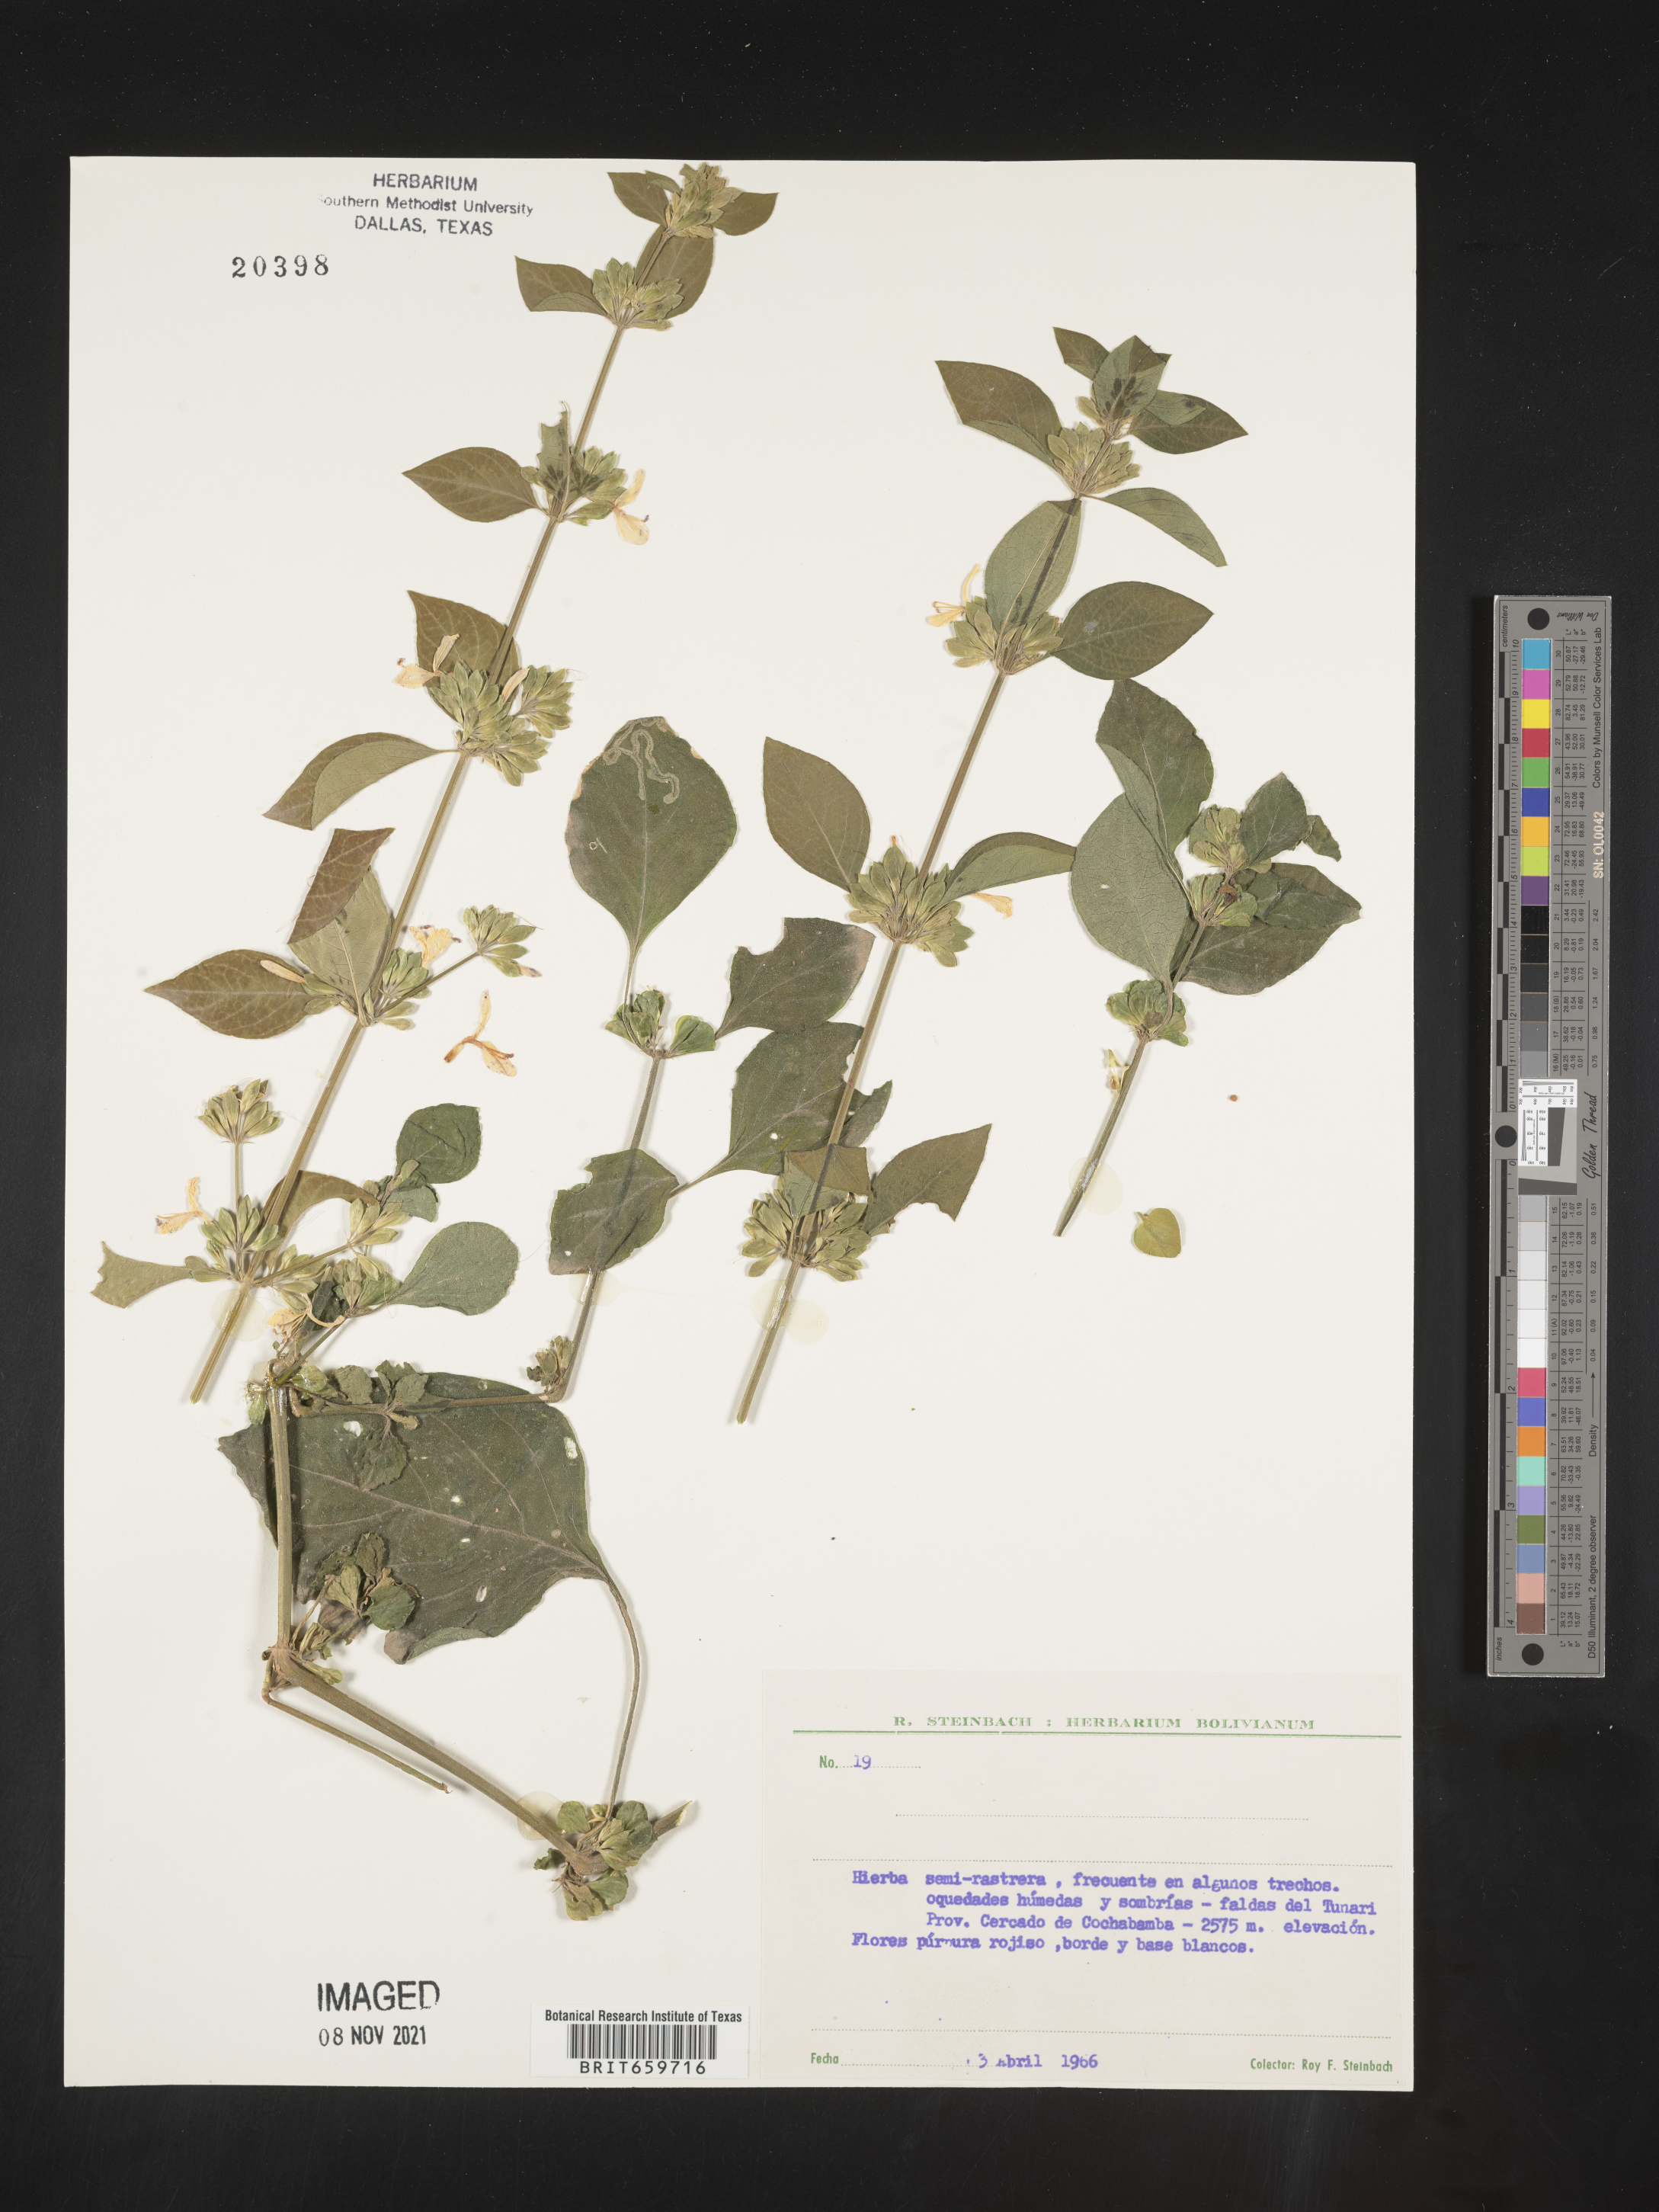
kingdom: Plantae
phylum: Tracheophyta
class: Magnoliopsida
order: Lamiales
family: Acanthaceae
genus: Dicliptera
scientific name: Dicliptera
